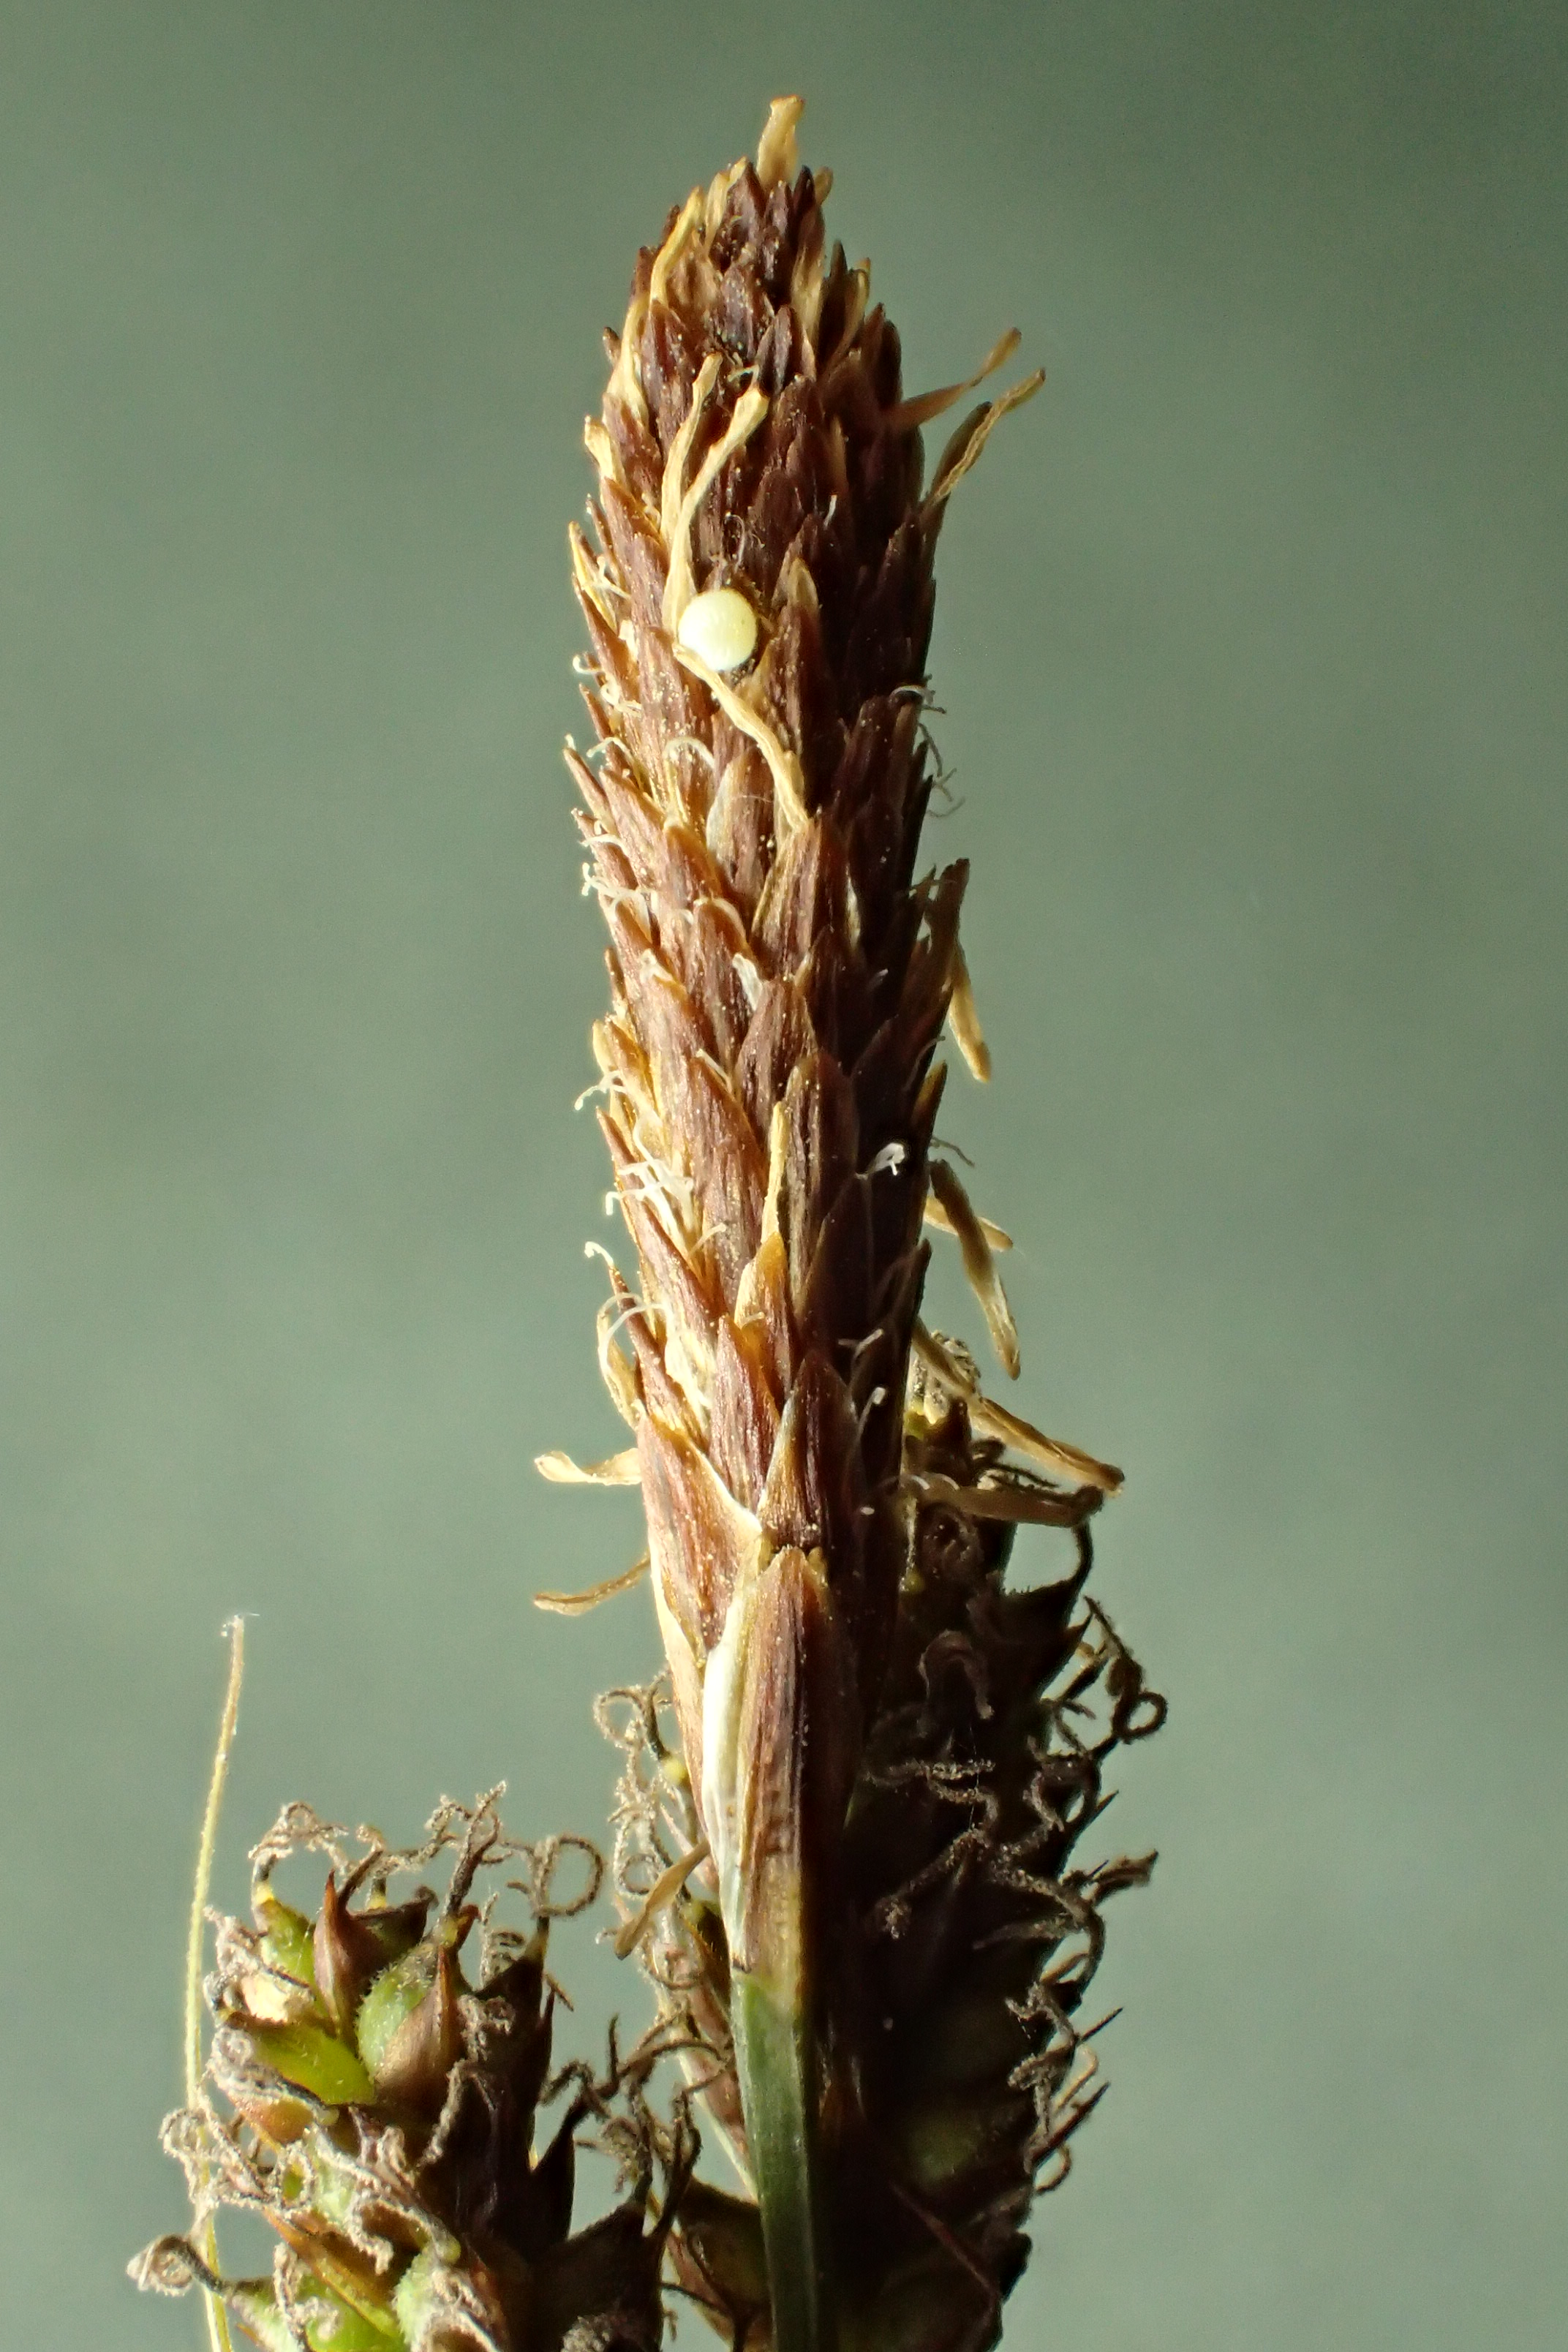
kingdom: Plantae
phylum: Tracheophyta
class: Liliopsida
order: Poales
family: Cyperaceae
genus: Carex
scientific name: Carex caryophyllea
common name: Vår-star
